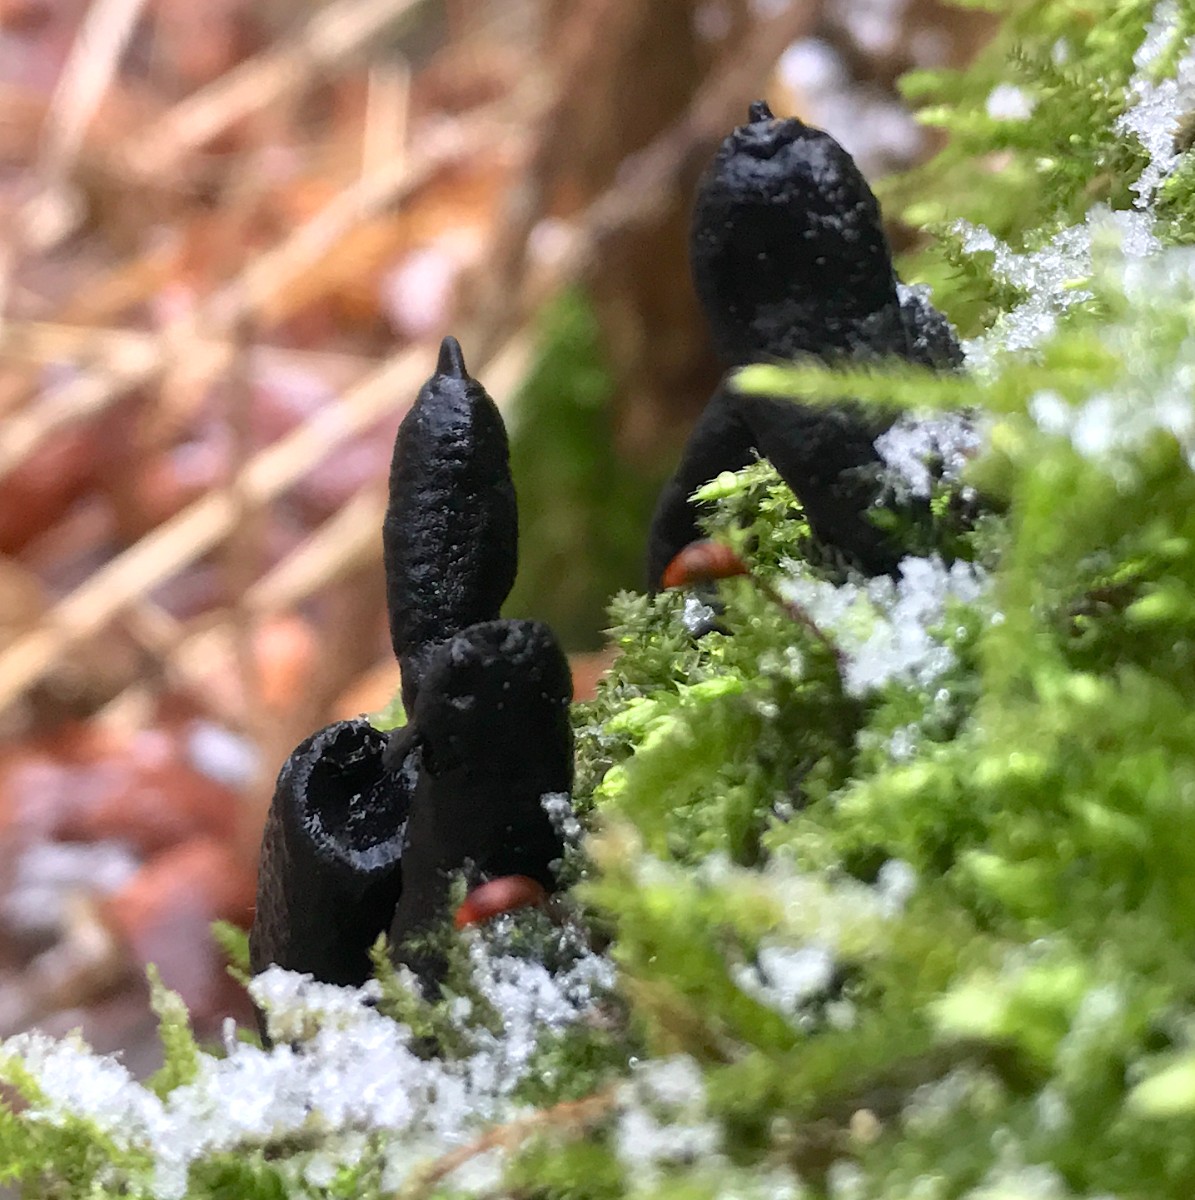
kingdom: Fungi
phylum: Ascomycota
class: Sordariomycetes
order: Xylariales
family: Xylariaceae
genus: Xylaria
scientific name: Xylaria
